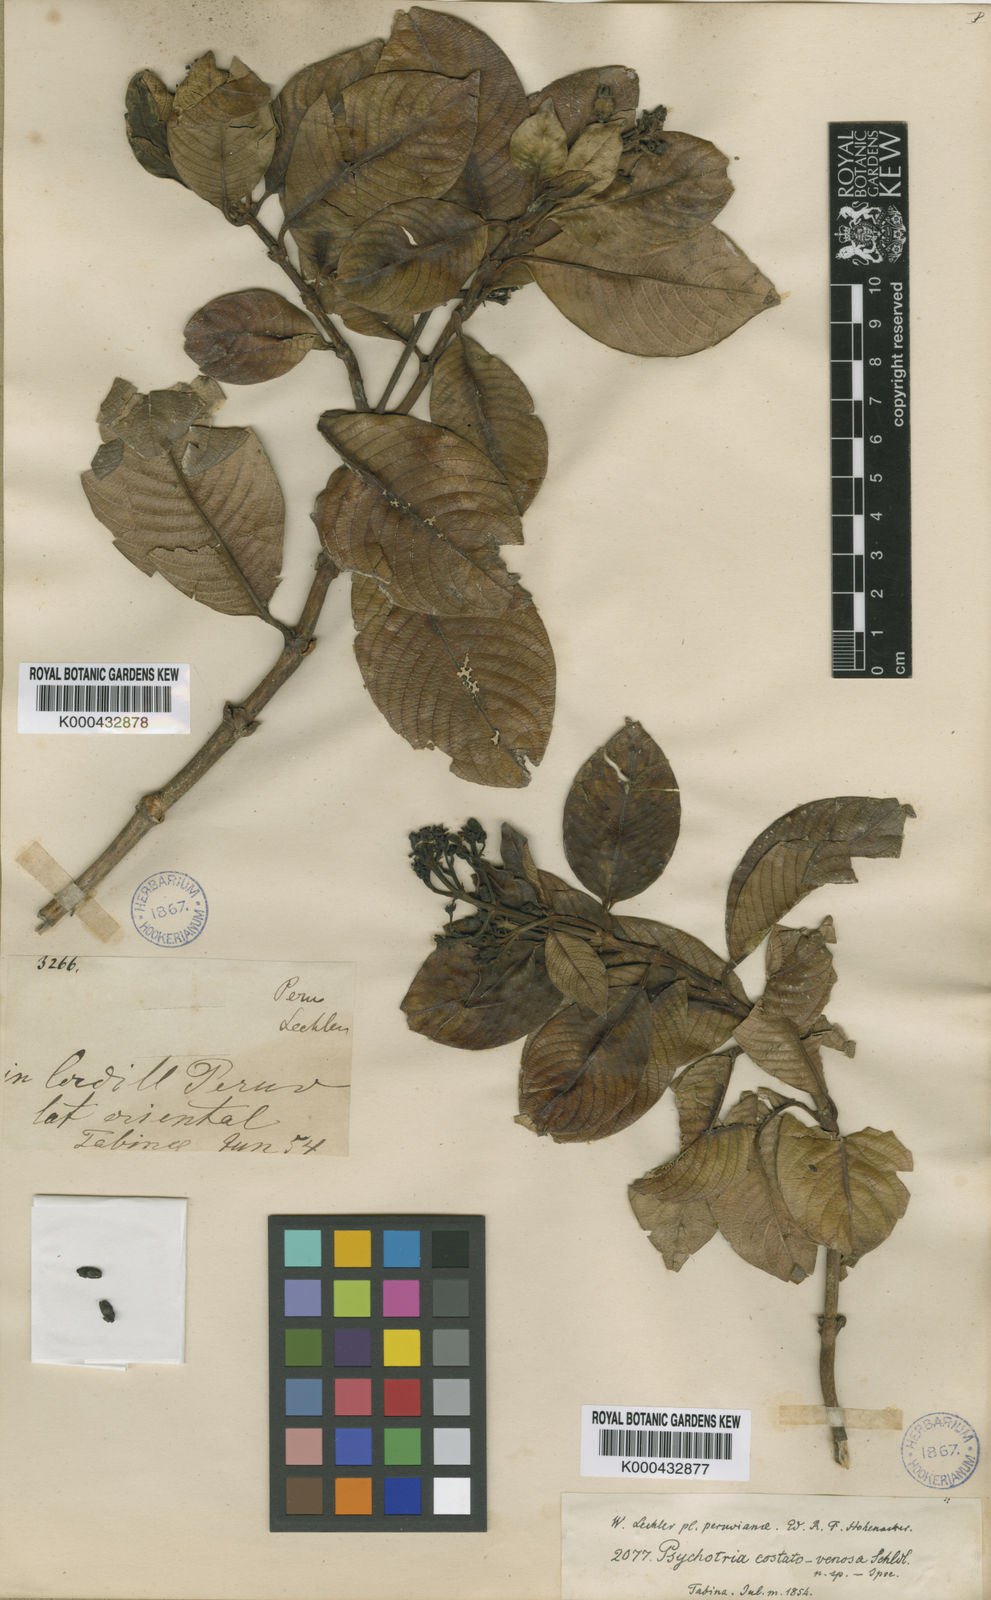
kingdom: Plantae
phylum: Tracheophyta
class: Magnoliopsida
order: Gentianales
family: Rubiaceae
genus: Psychotria
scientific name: Psychotria costatovenosa
